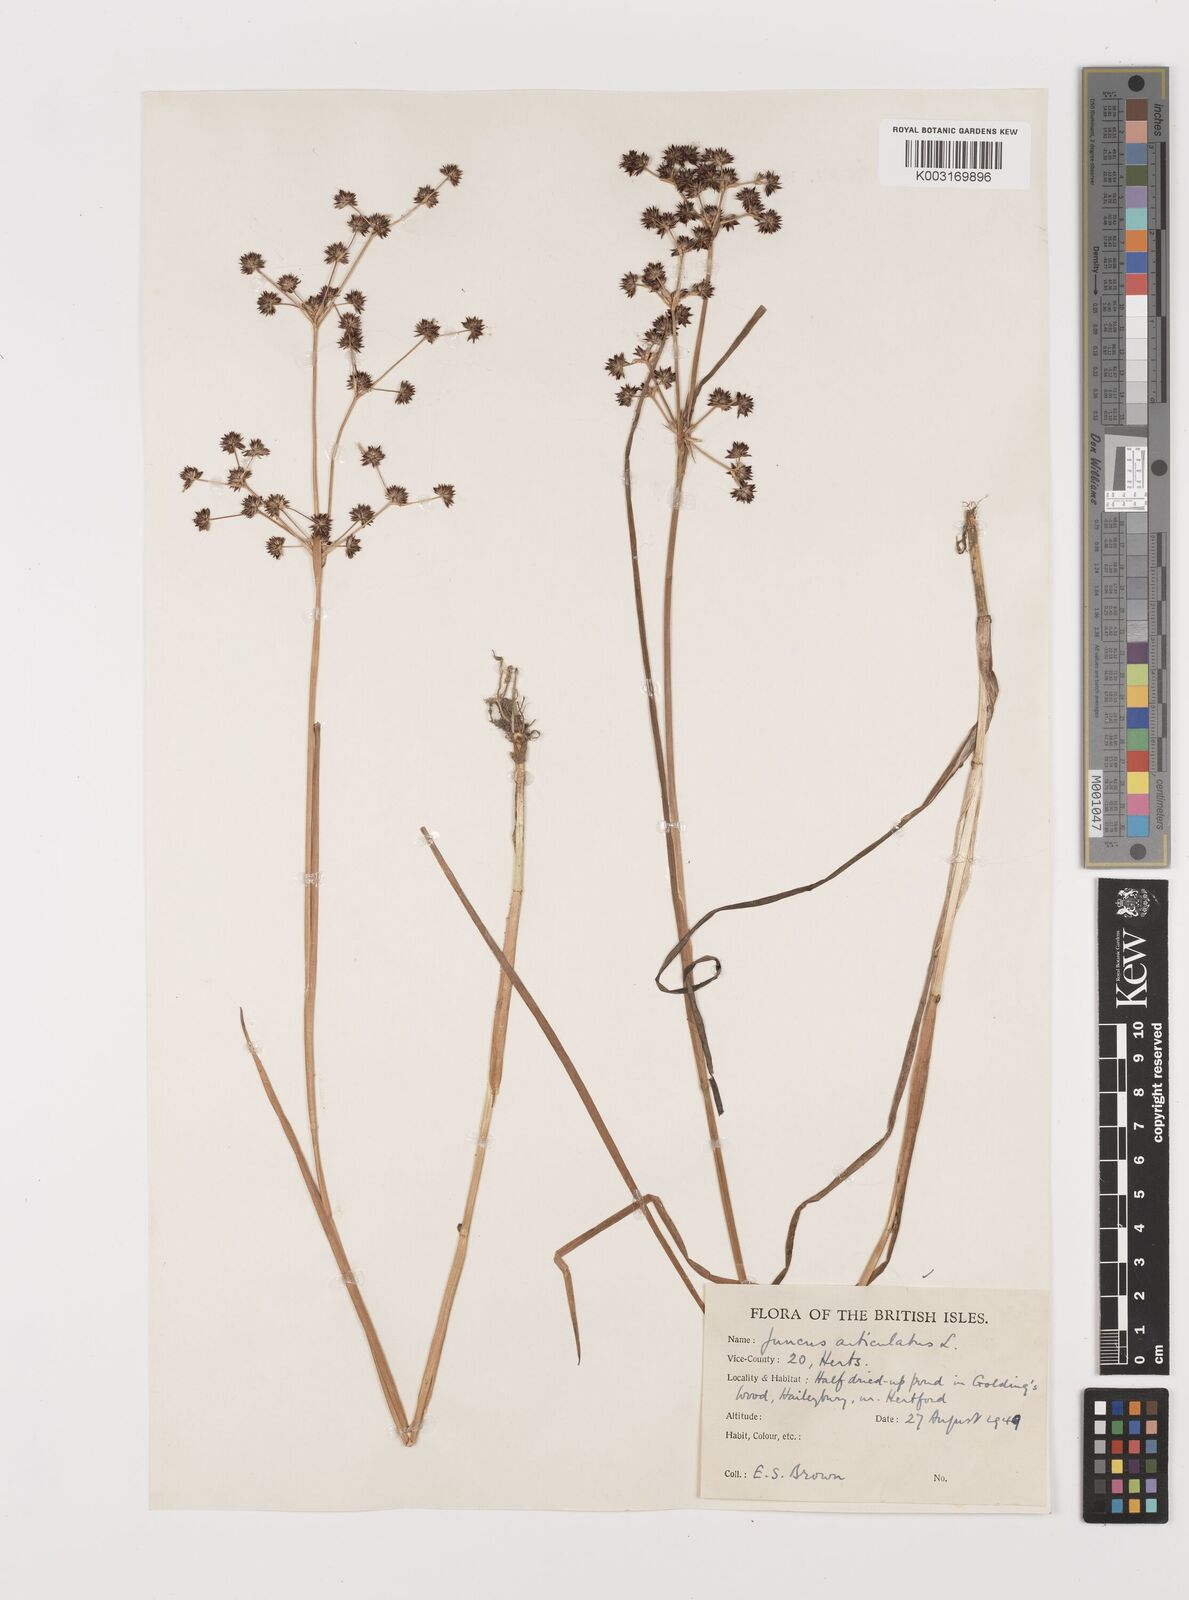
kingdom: Plantae
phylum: Tracheophyta
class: Liliopsida
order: Poales
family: Juncaceae
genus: Juncus
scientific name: Juncus articulatus
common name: Jointed rush
